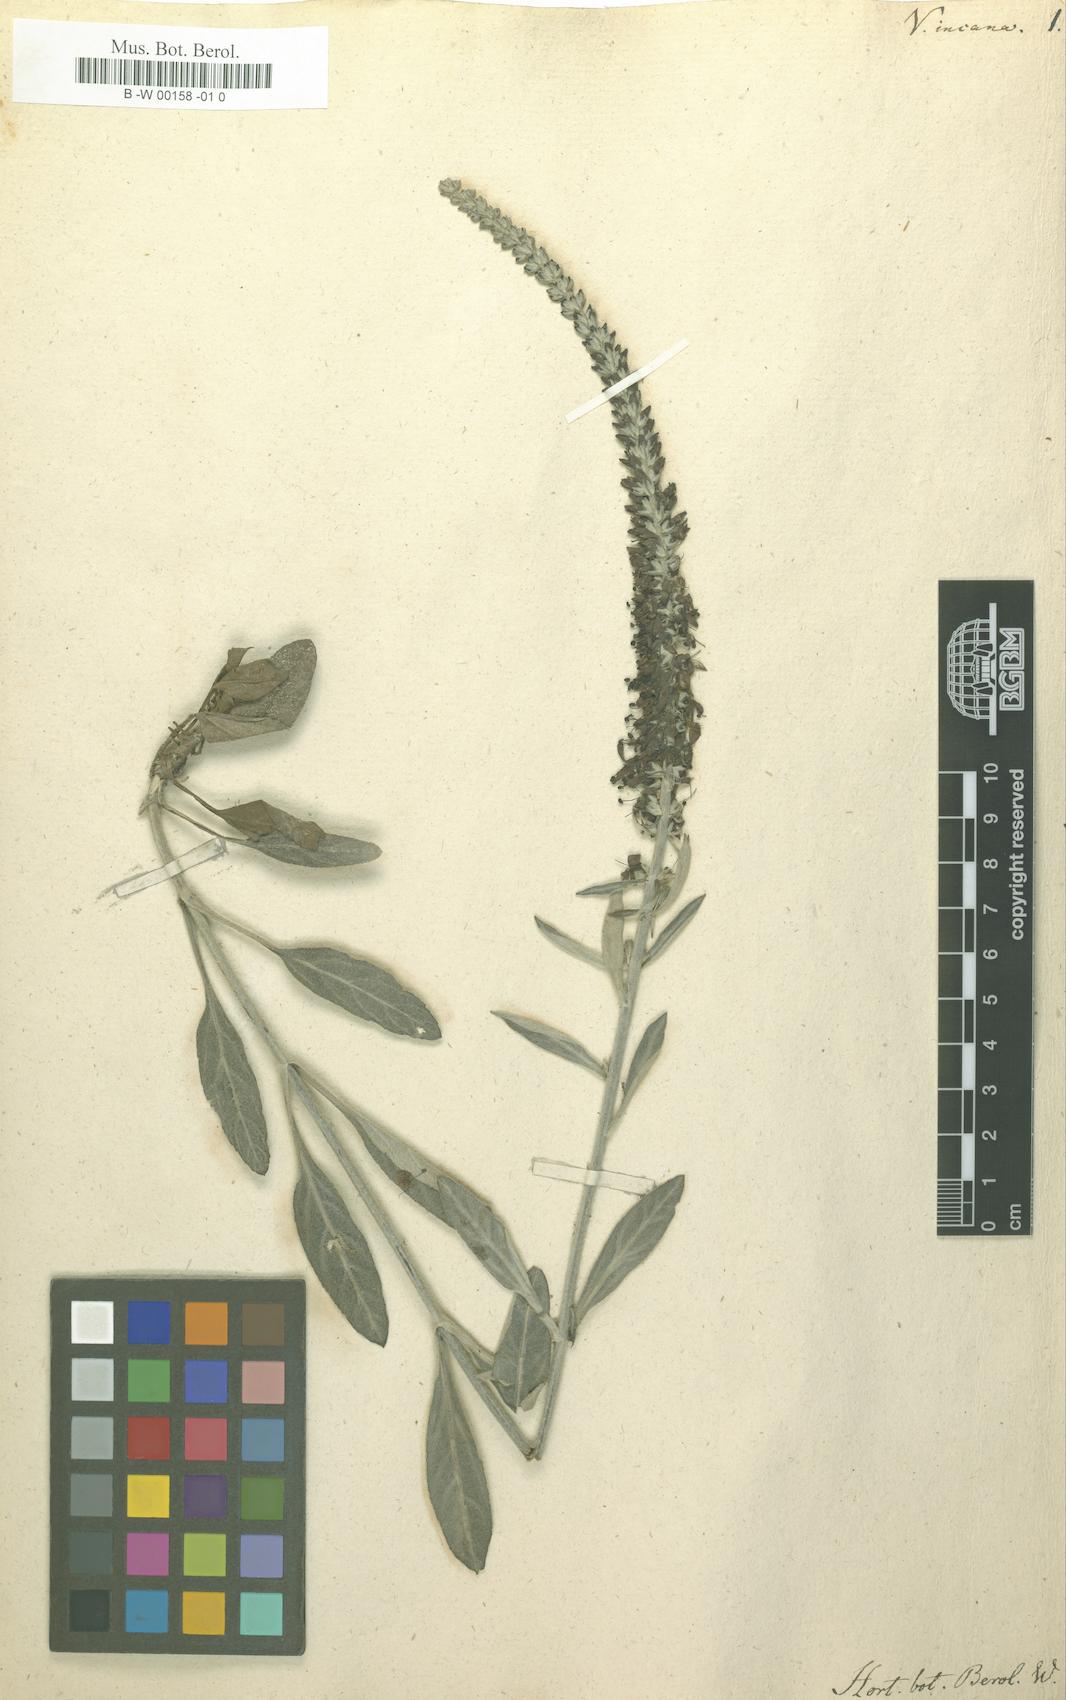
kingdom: Plantae
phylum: Tracheophyta
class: Magnoliopsida
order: Lamiales
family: Plantaginaceae
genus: Veronica
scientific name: Veronica incana
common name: Silver speedwell
